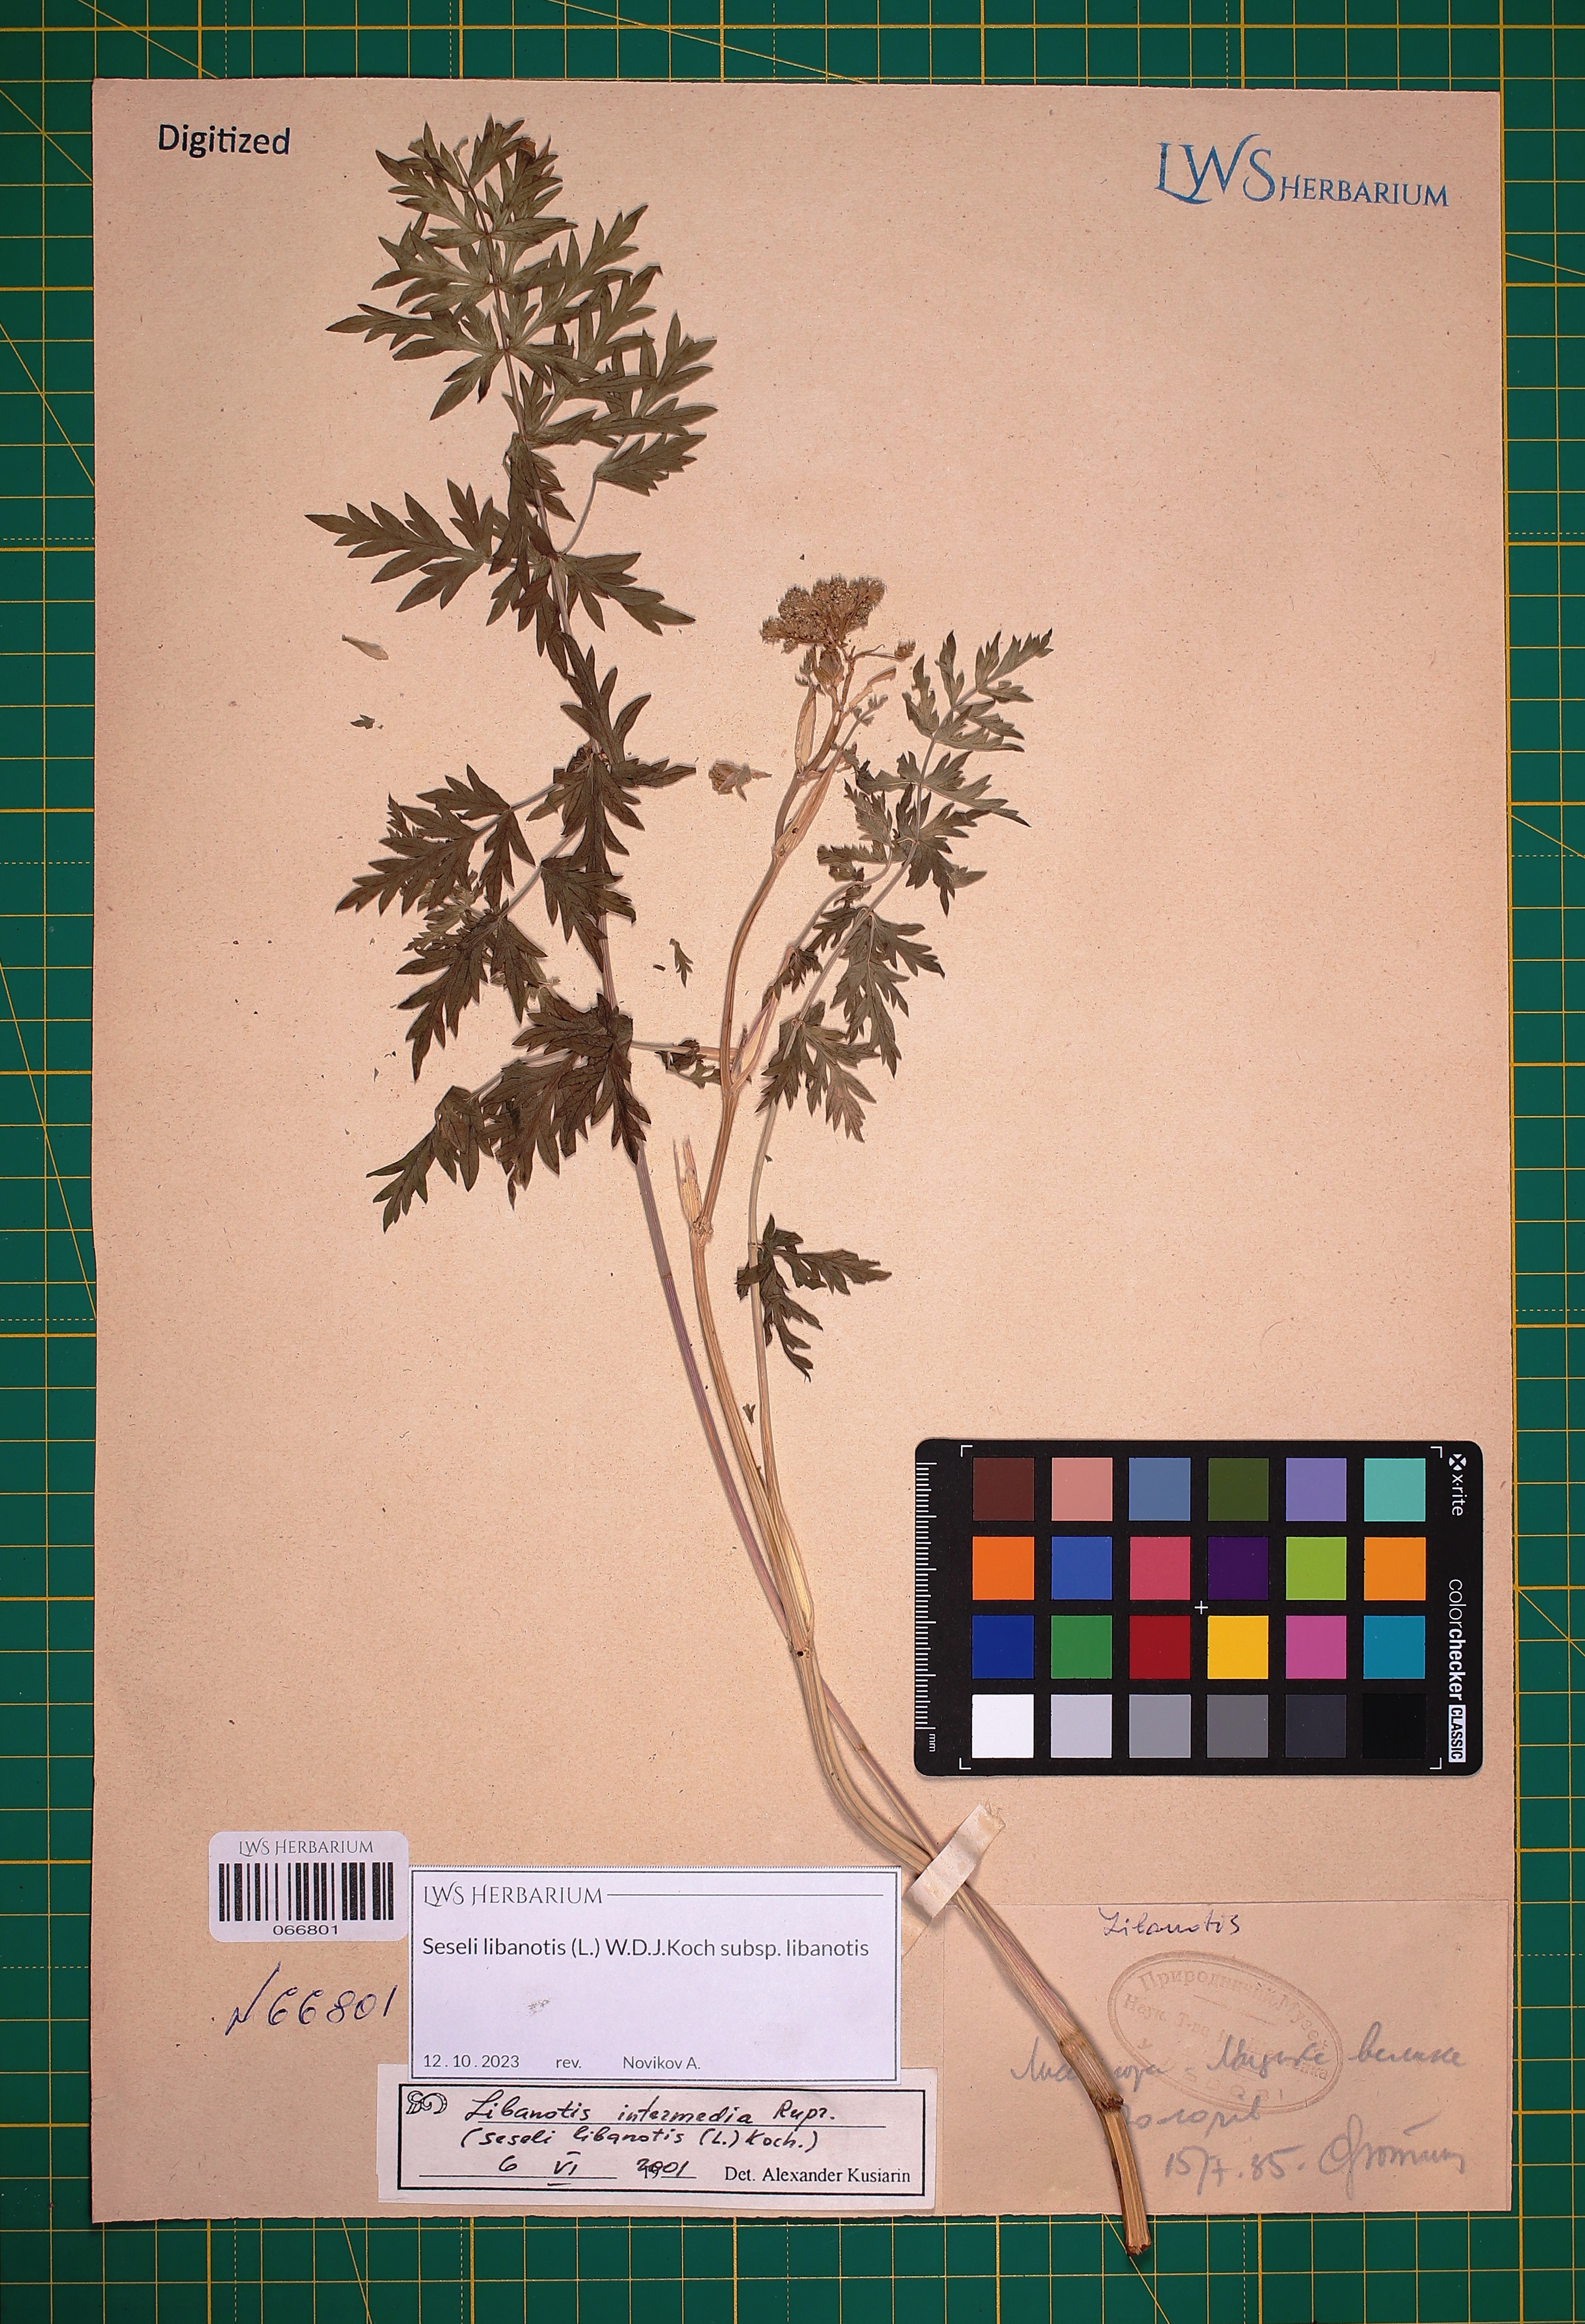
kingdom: Plantae
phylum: Tracheophyta
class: Magnoliopsida
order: Apiales
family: Apiaceae
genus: Seseli
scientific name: Seseli libanotis
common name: Mooncarrot
